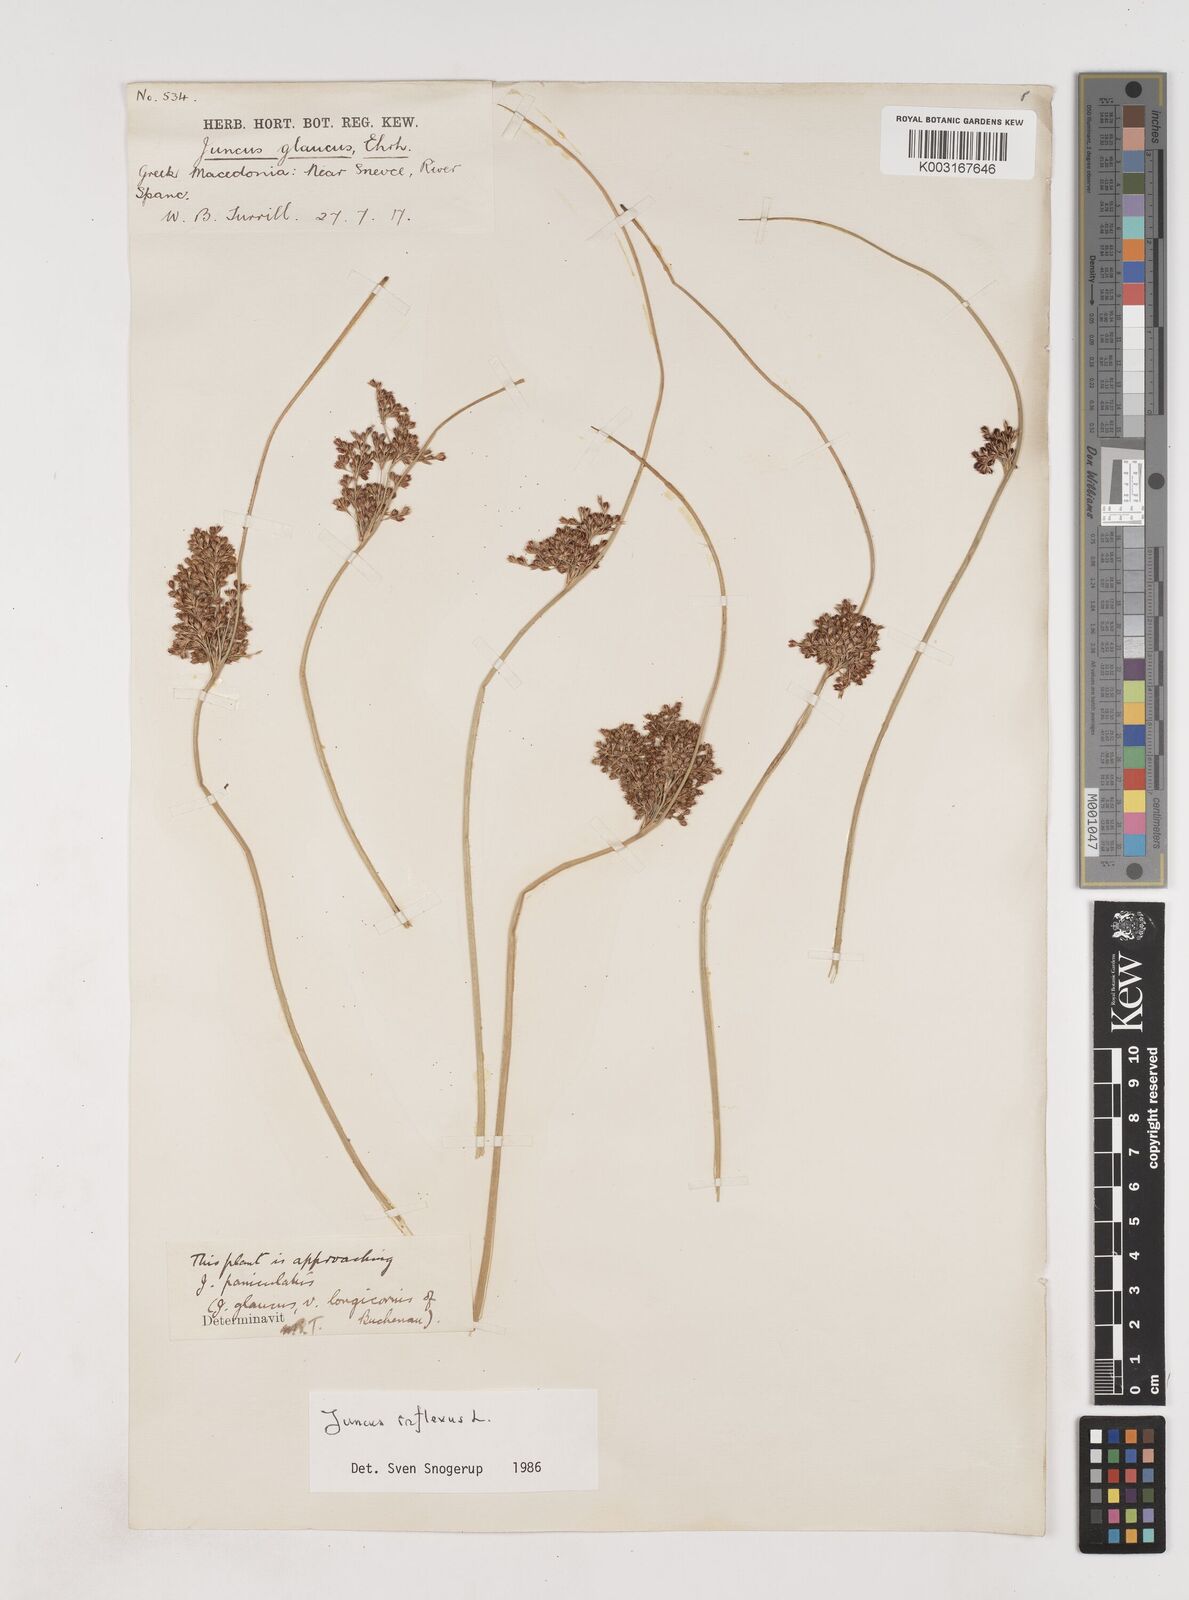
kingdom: Plantae
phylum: Tracheophyta
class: Liliopsida
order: Poales
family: Juncaceae
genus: Juncus
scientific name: Juncus inflexus
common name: Hard rush
